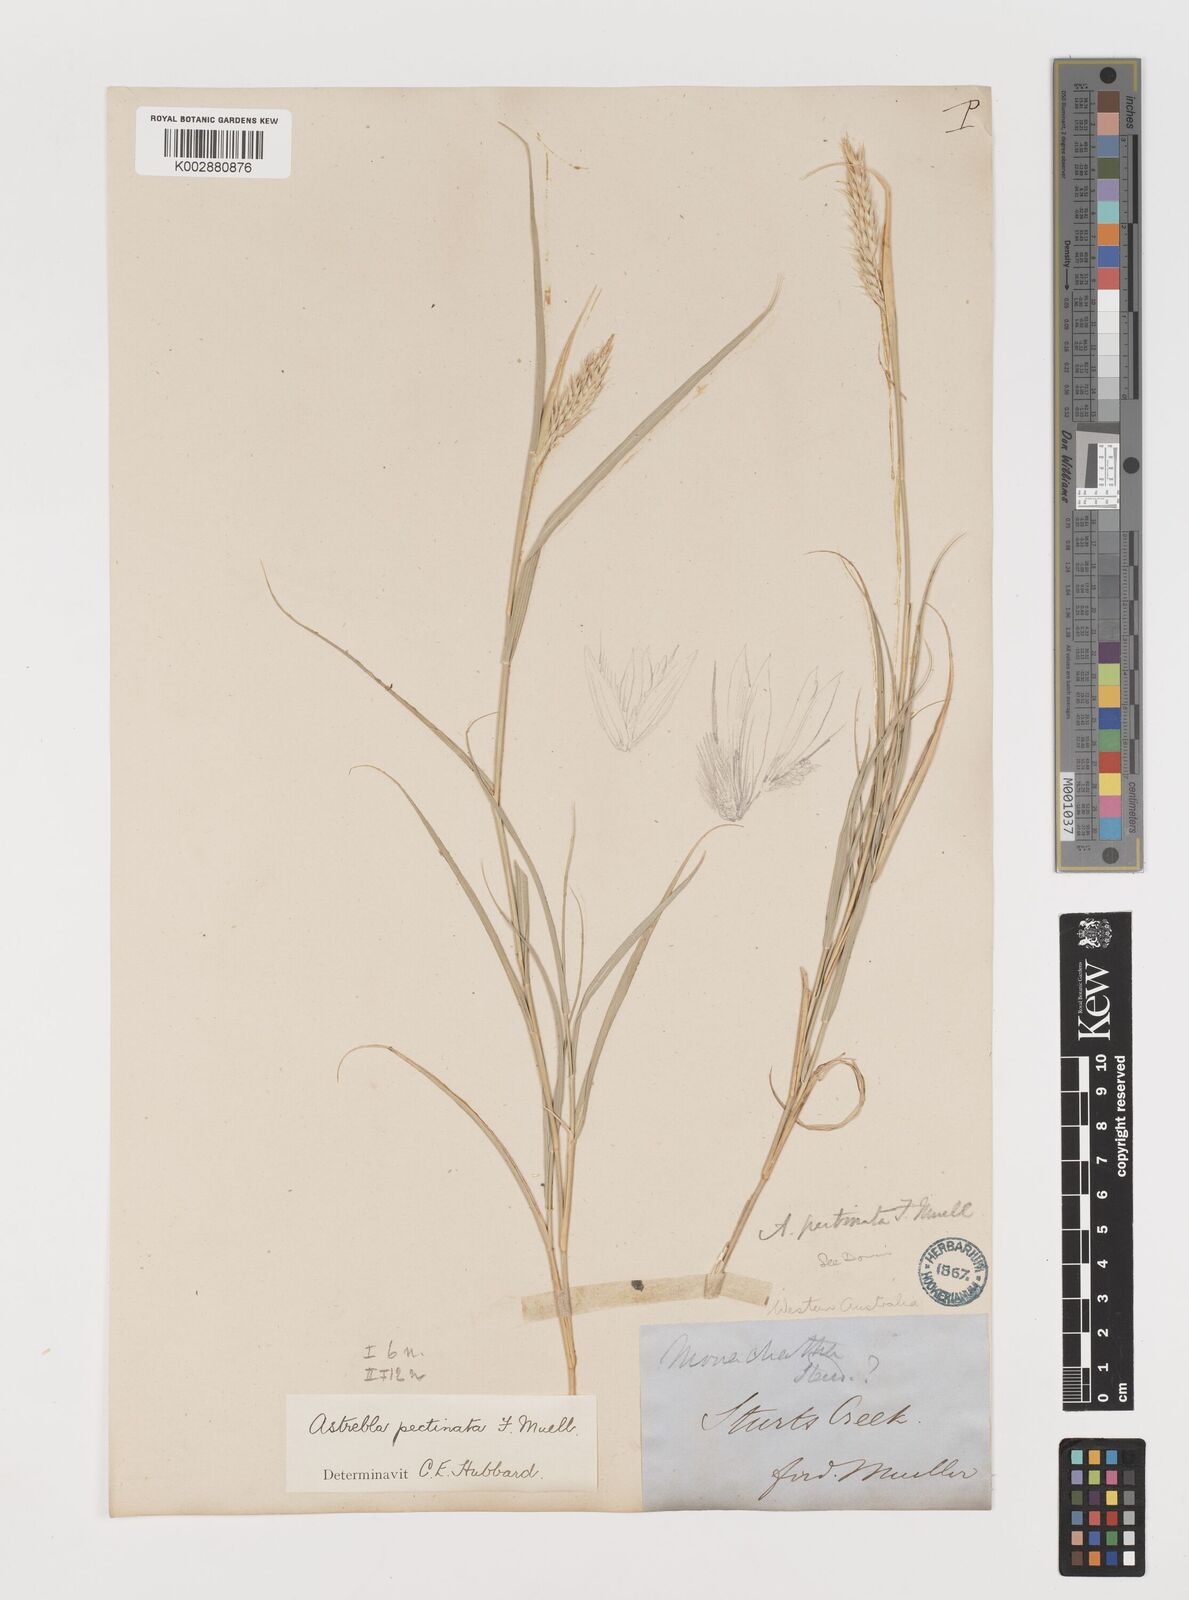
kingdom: Plantae
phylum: Tracheophyta
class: Liliopsida
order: Poales
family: Poaceae
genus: Astrebla
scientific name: Astrebla pectinata
